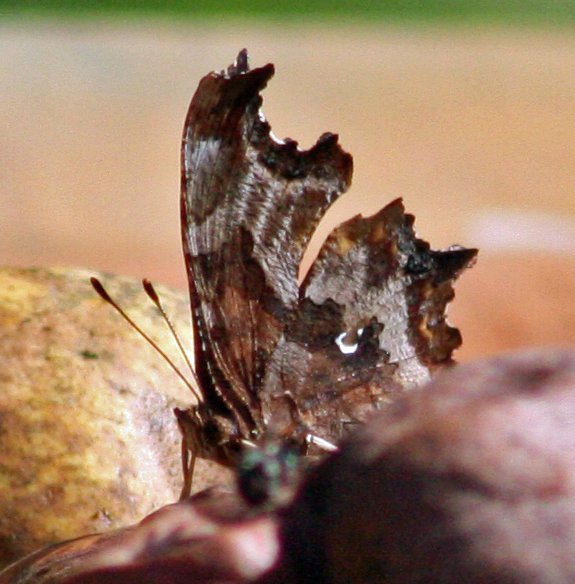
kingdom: Animalia
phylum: Arthropoda
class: Insecta
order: Lepidoptera
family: Nymphalidae
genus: Polygonia
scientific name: Polygonia interrogationis
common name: Question Mark
